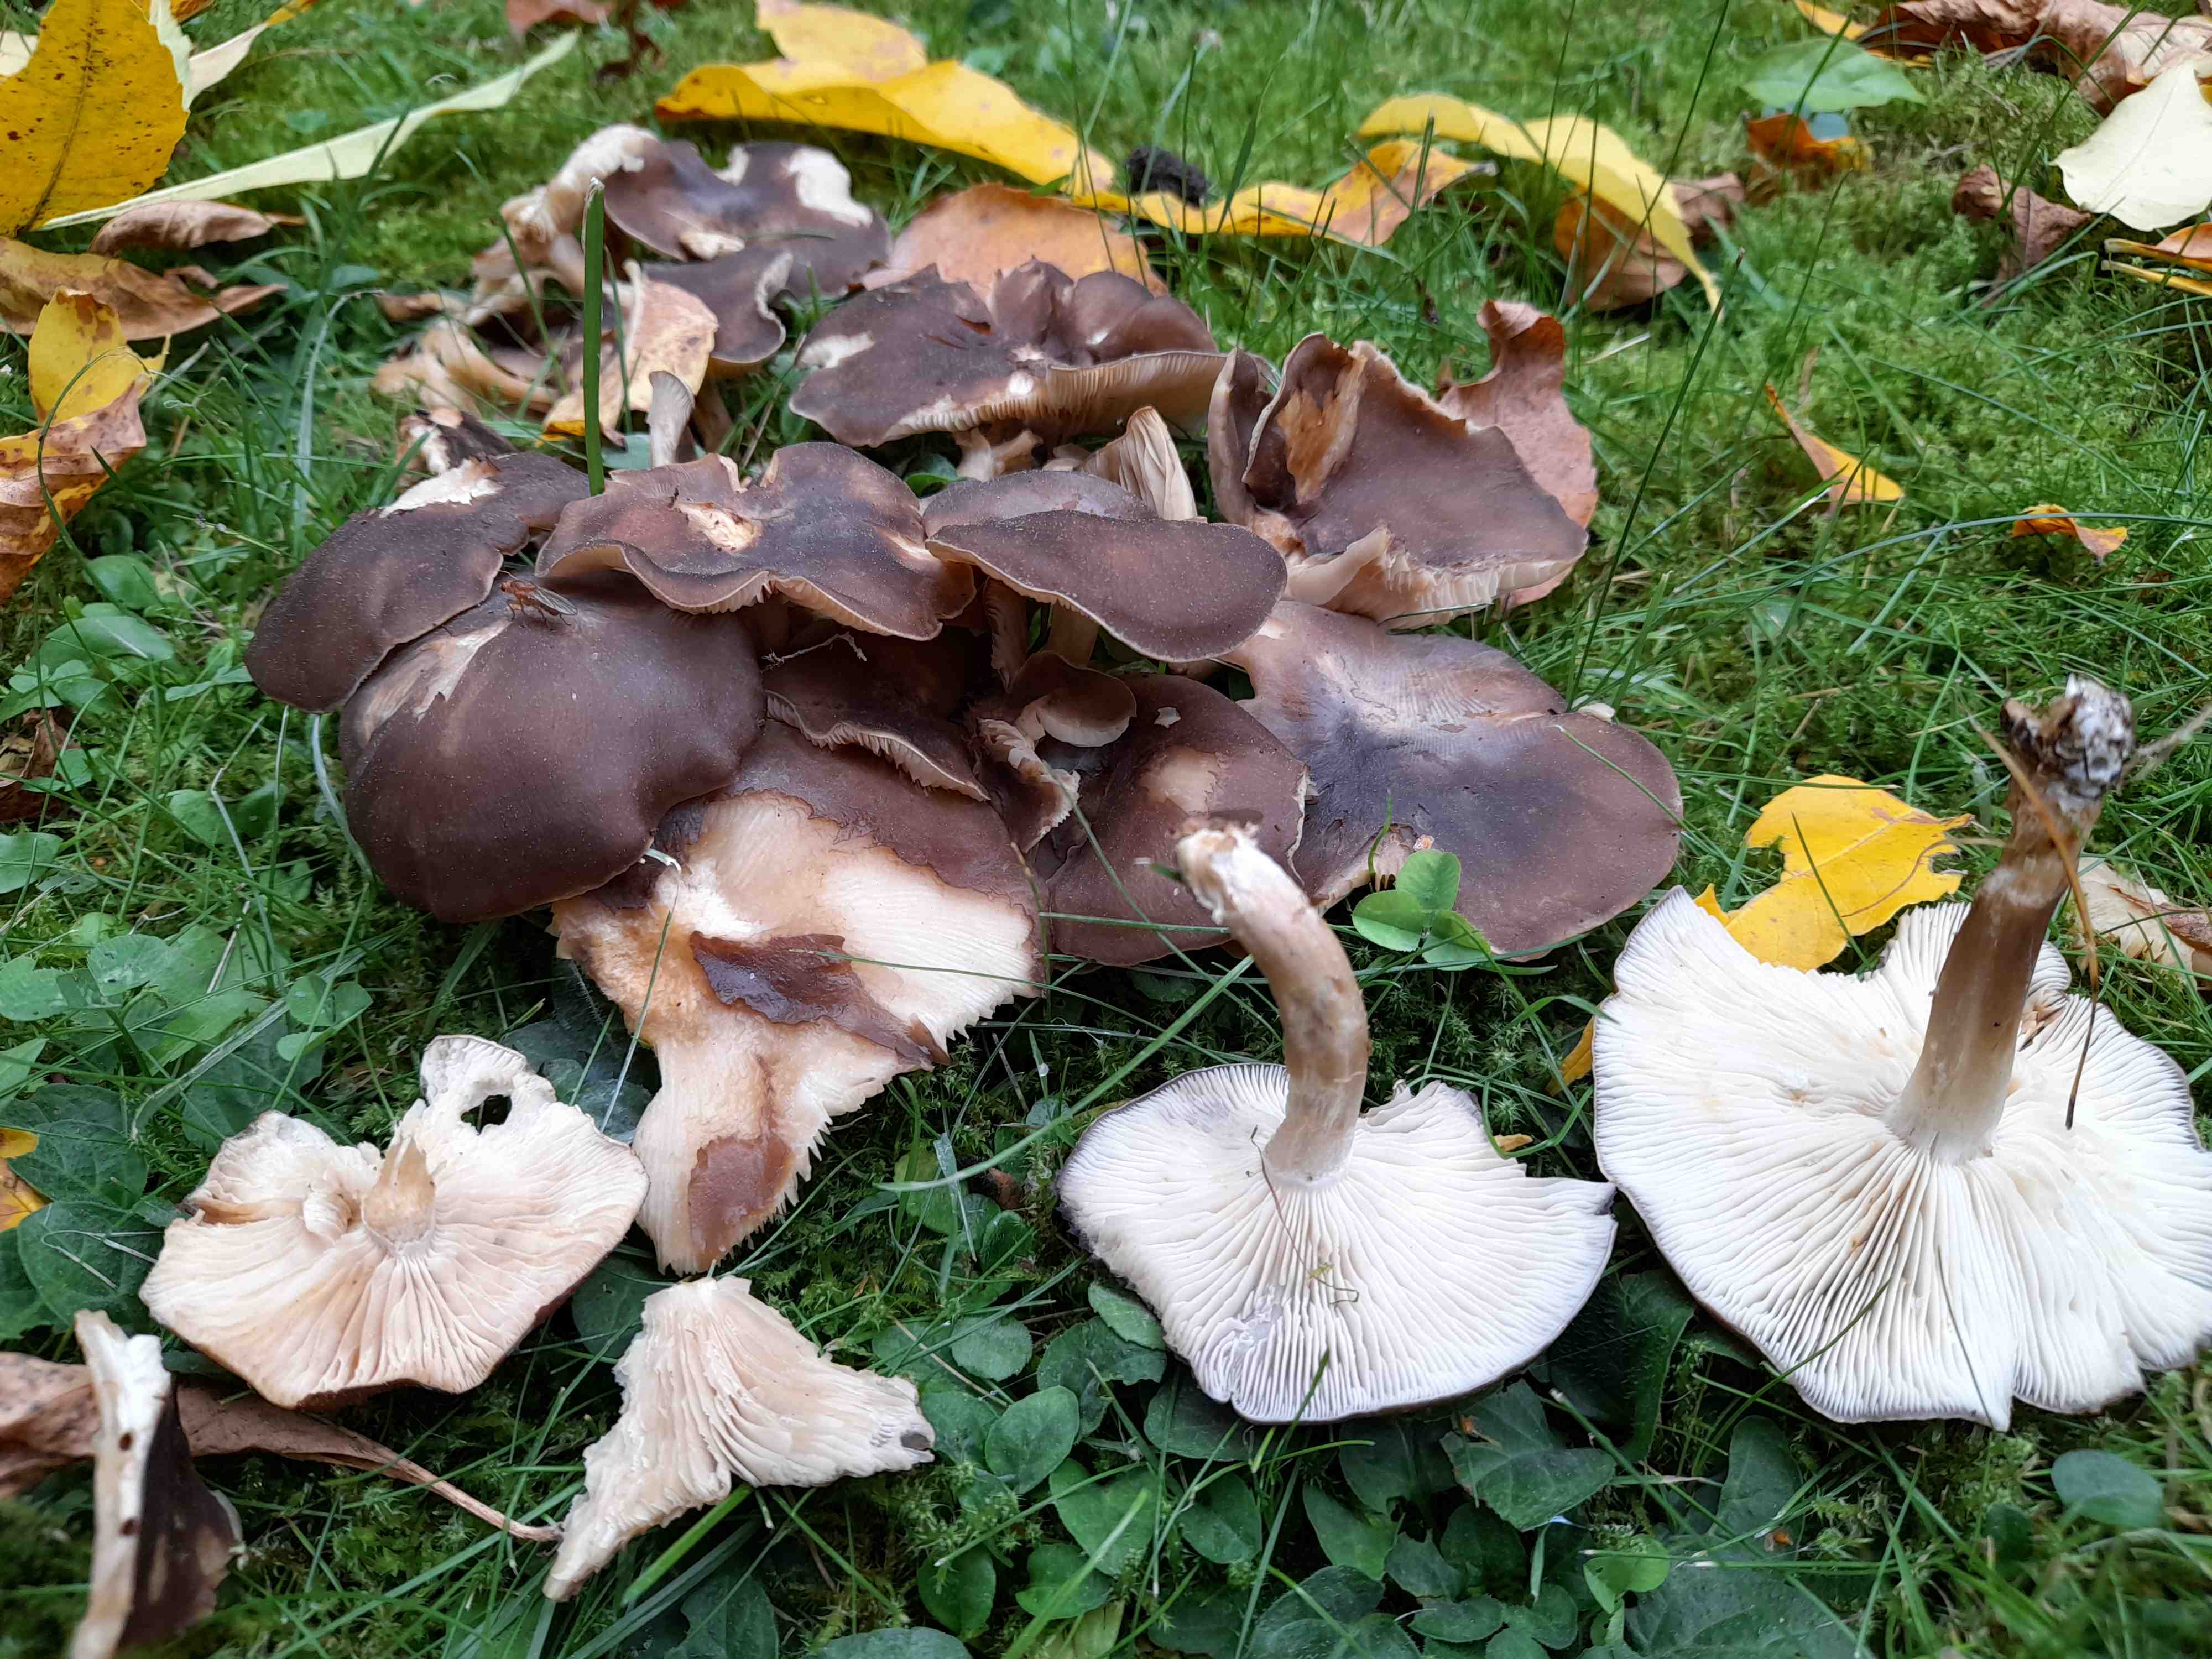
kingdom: Fungi
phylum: Basidiomycota
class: Agaricomycetes
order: Agaricales
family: Lyophyllaceae
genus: Lyophyllum
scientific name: Lyophyllum decastes
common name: Clustered domecap
